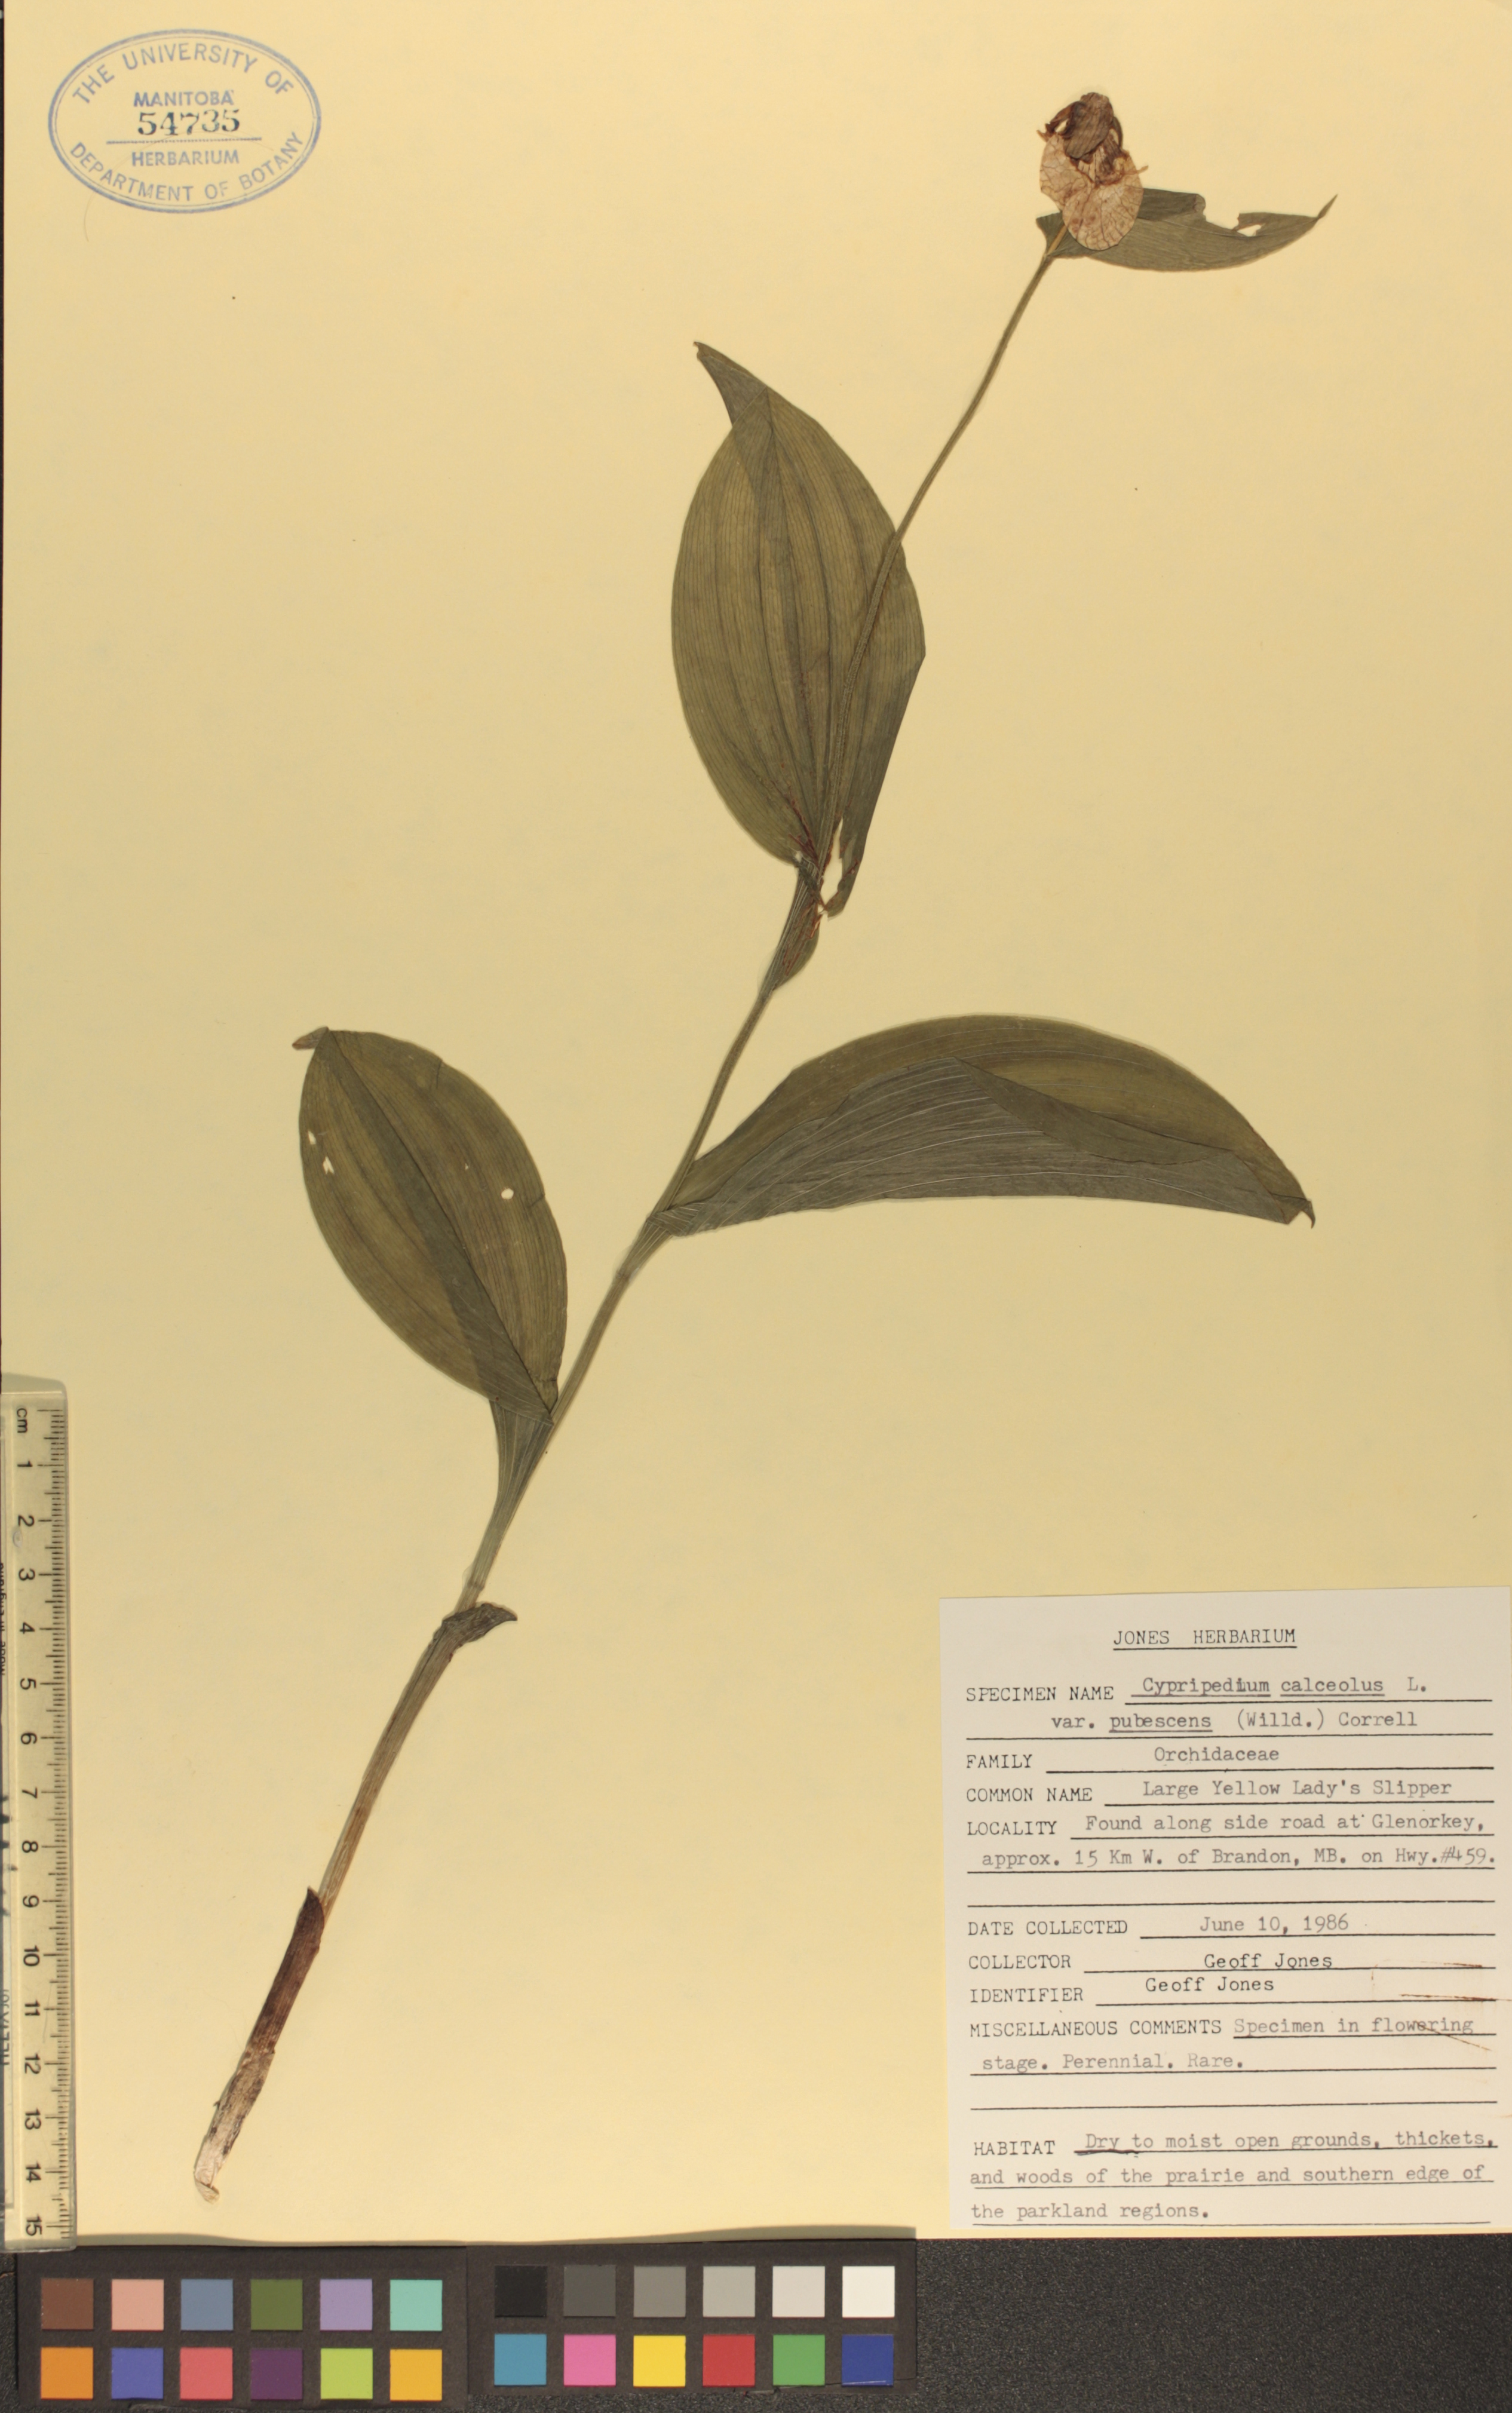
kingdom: Plantae
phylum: Tracheophyta
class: Liliopsida
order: Asparagales
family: Orchidaceae
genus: Cypripedium
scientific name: Cypripedium parviflorum
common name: American yellow lady's-slipper
